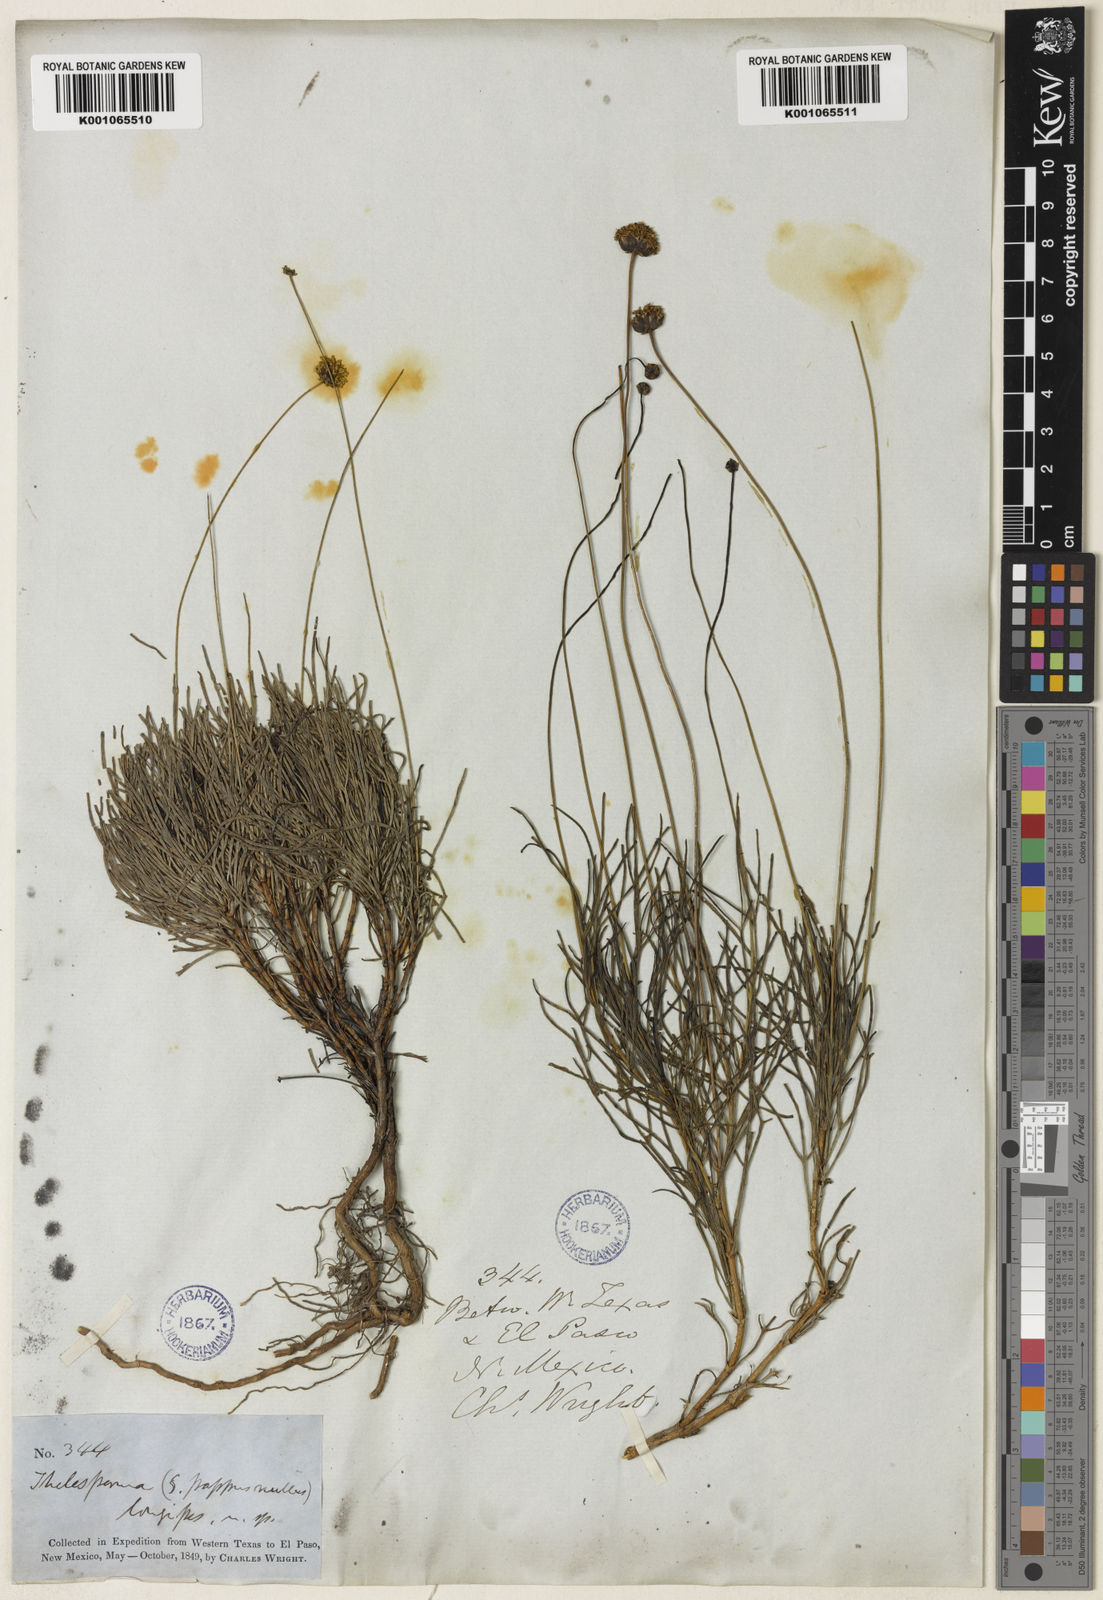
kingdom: Plantae
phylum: Tracheophyta
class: Magnoliopsida
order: Asterales
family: Asteraceae
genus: Thelesperma
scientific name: Thelesperma longipes
